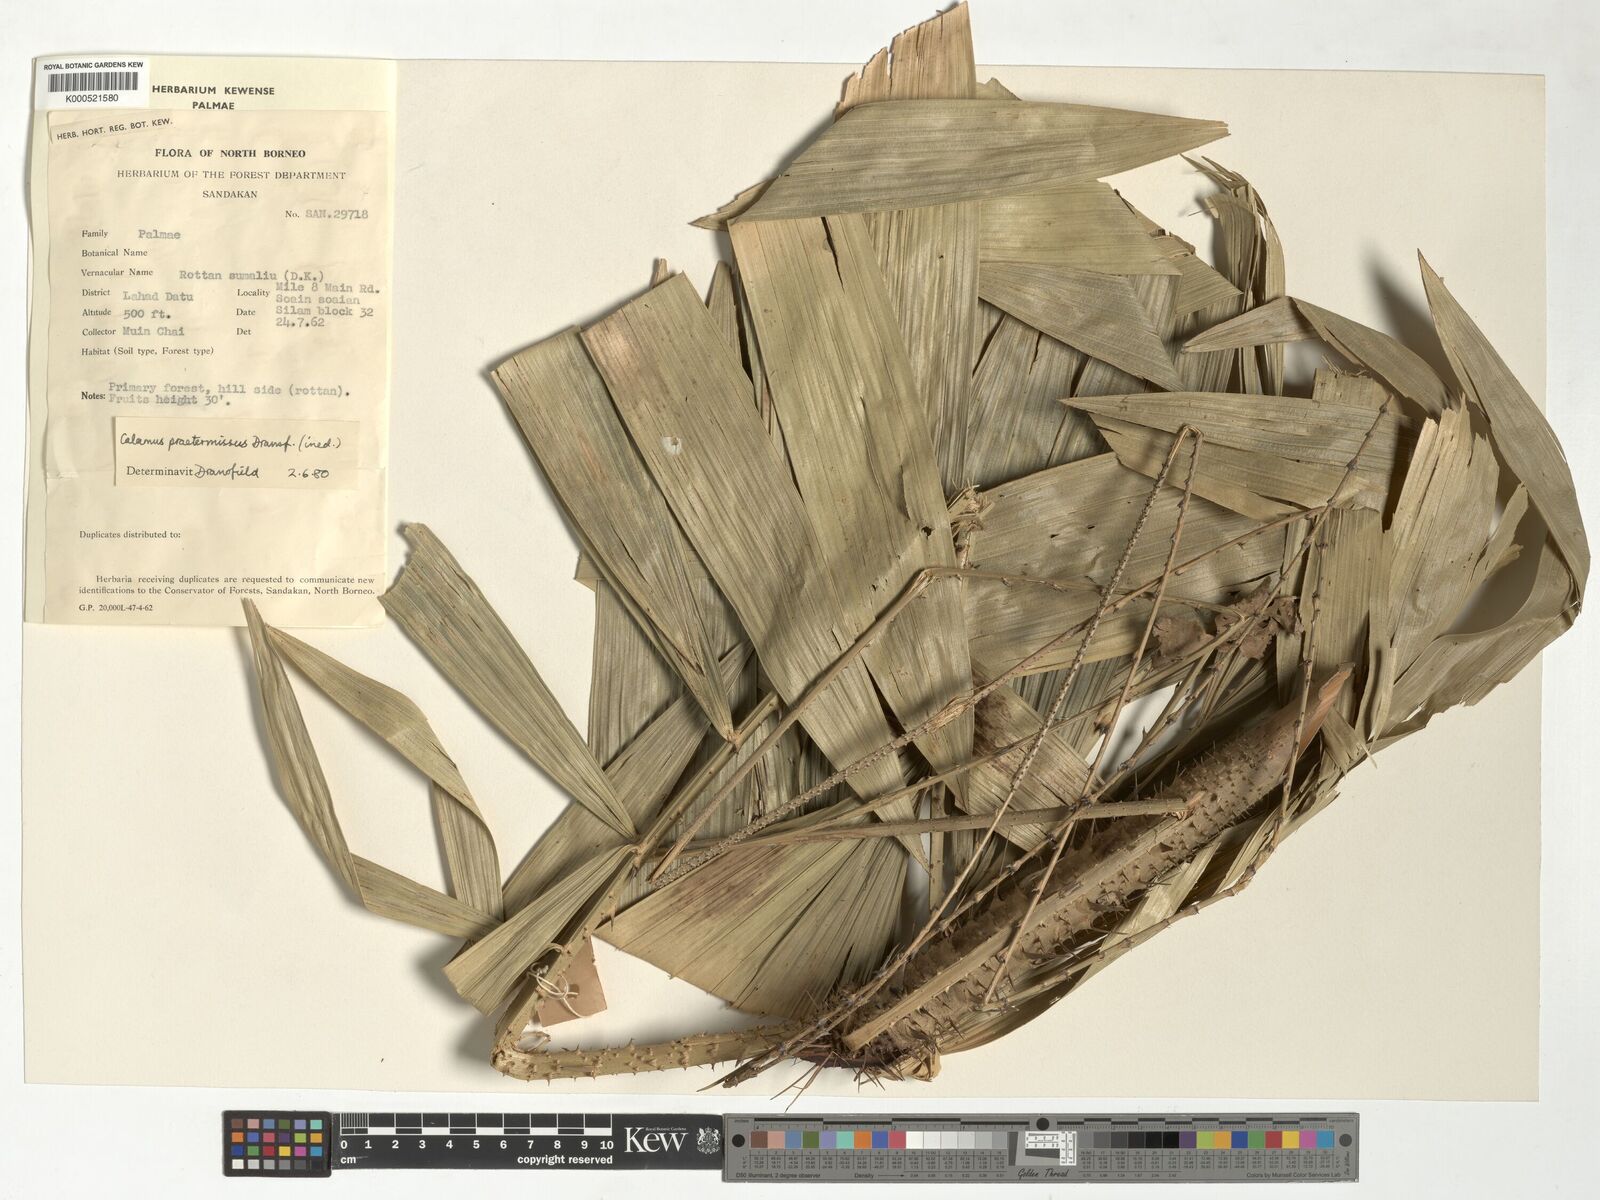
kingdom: Plantae
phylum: Tracheophyta
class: Liliopsida
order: Arecales
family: Arecaceae
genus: Calamus
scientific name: Calamus praetermissus
